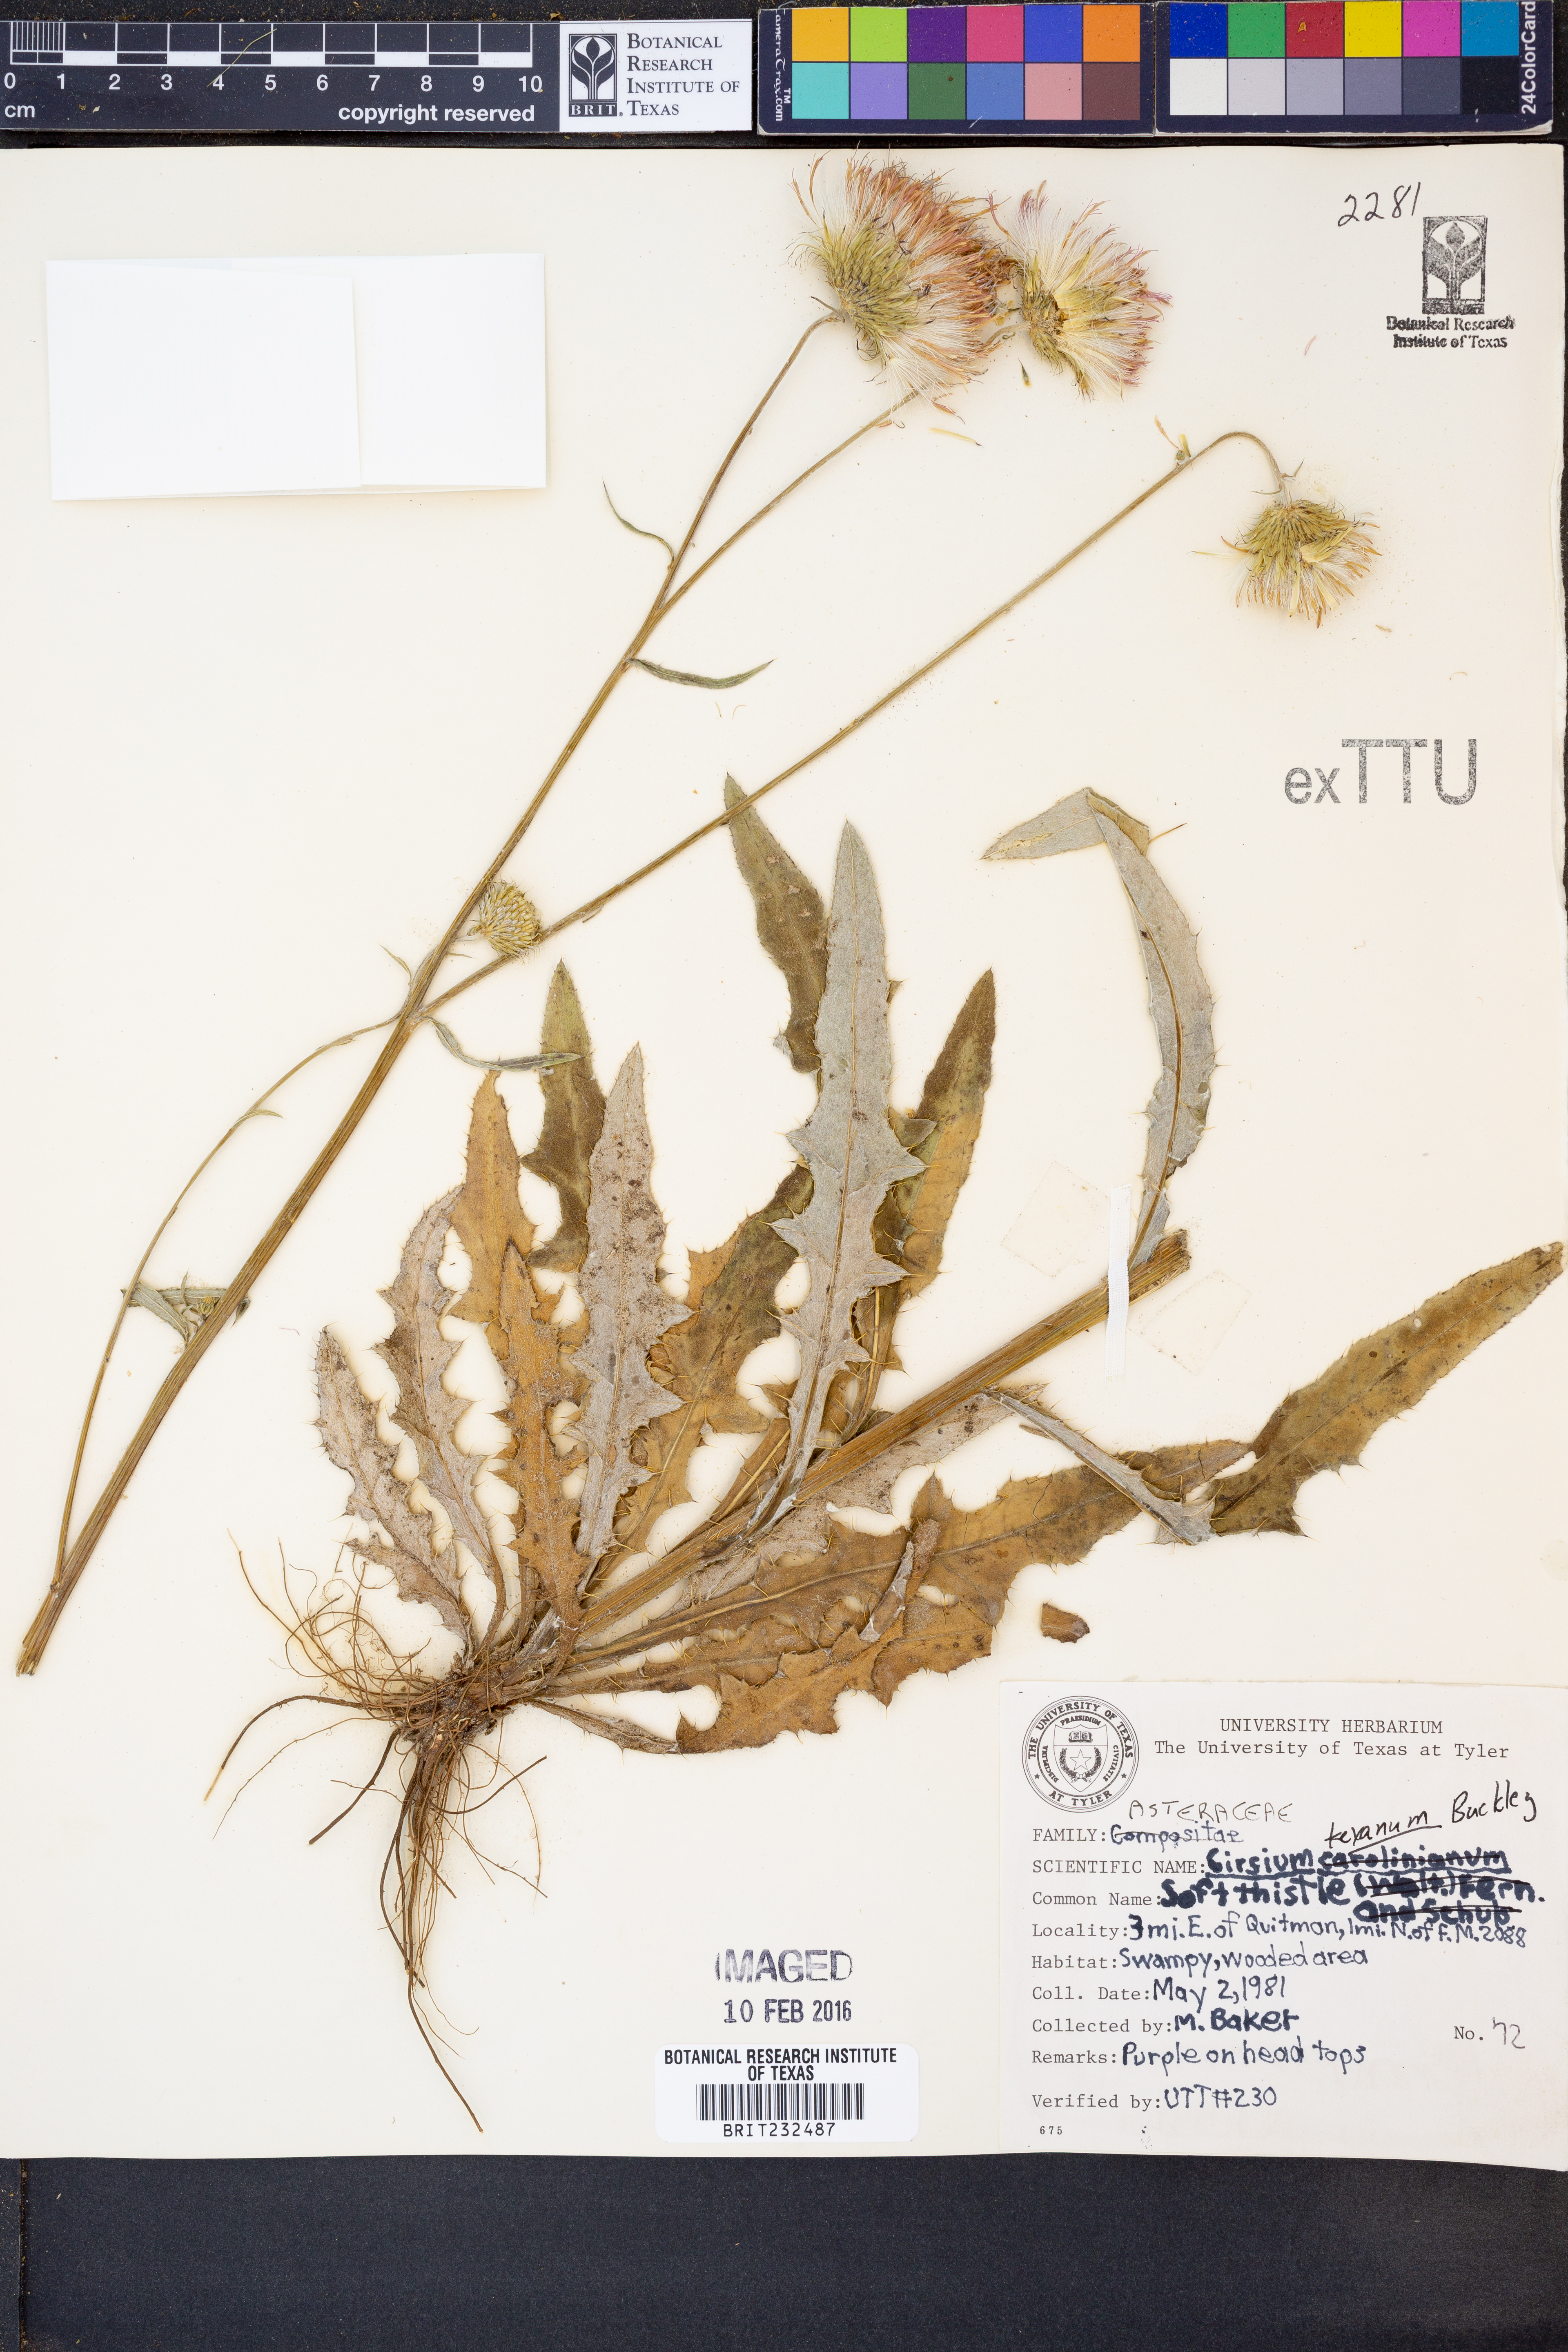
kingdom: Plantae
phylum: Tracheophyta
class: Magnoliopsida
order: Asterales
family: Asteraceae
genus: Cirsium
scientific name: Cirsium texanum
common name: Texas purple thistle
